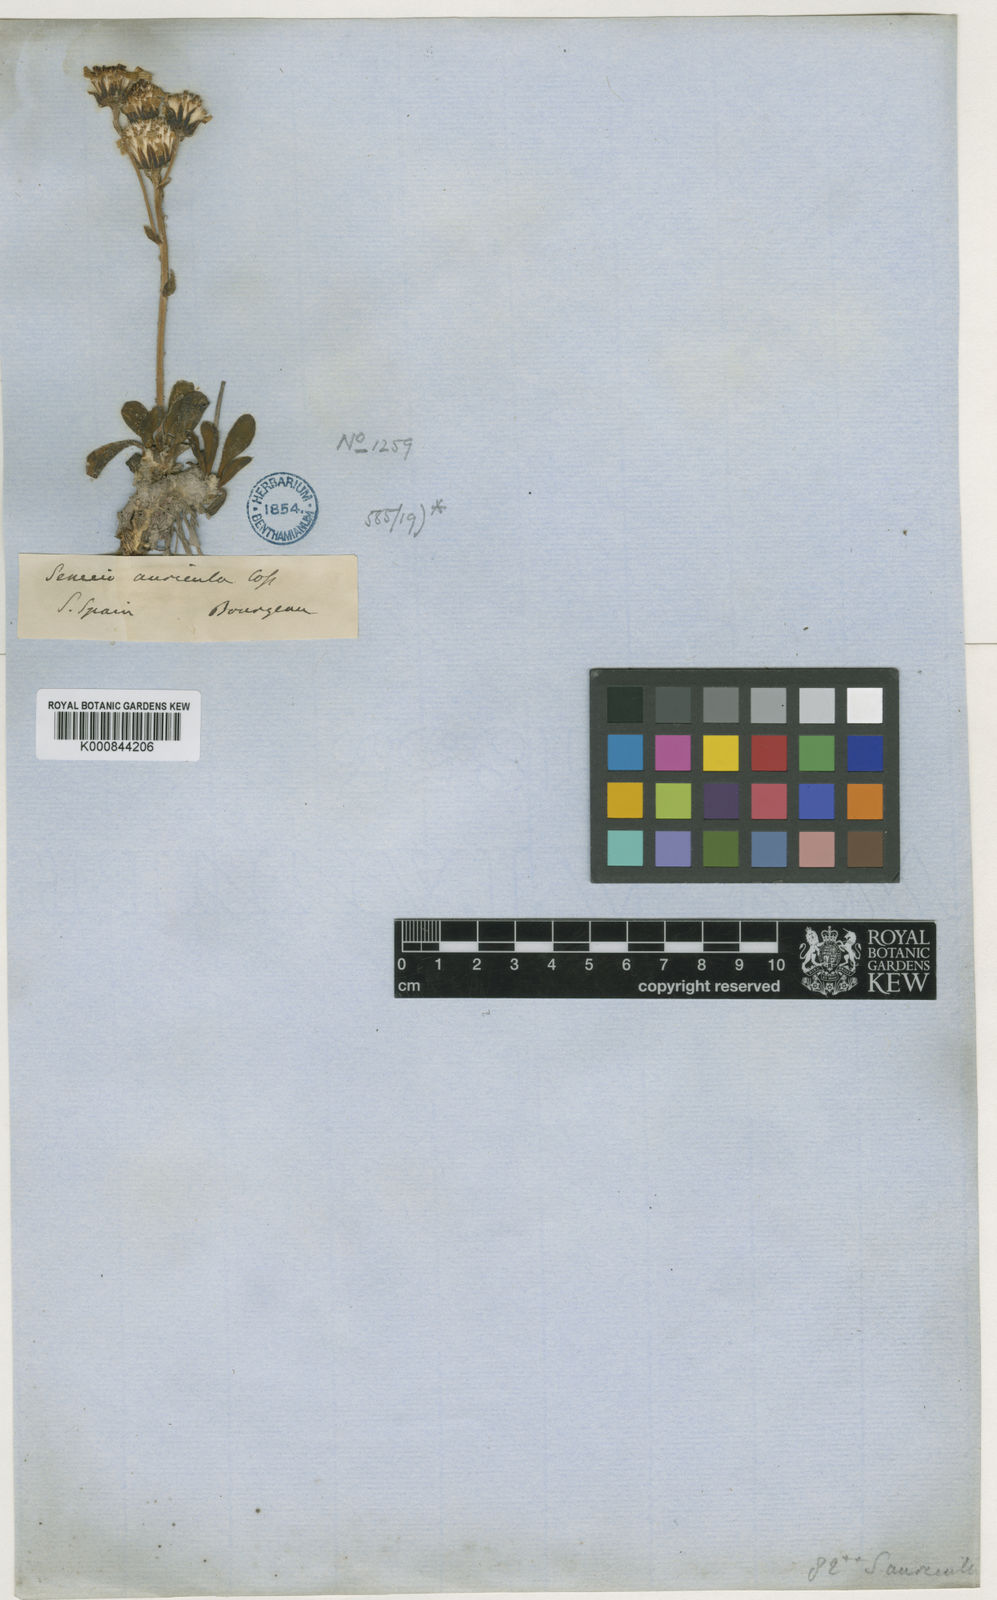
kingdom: Plantae
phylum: Tracheophyta
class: Magnoliopsida
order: Asterales
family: Asteraceae
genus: Senecio
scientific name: Senecio auricula
